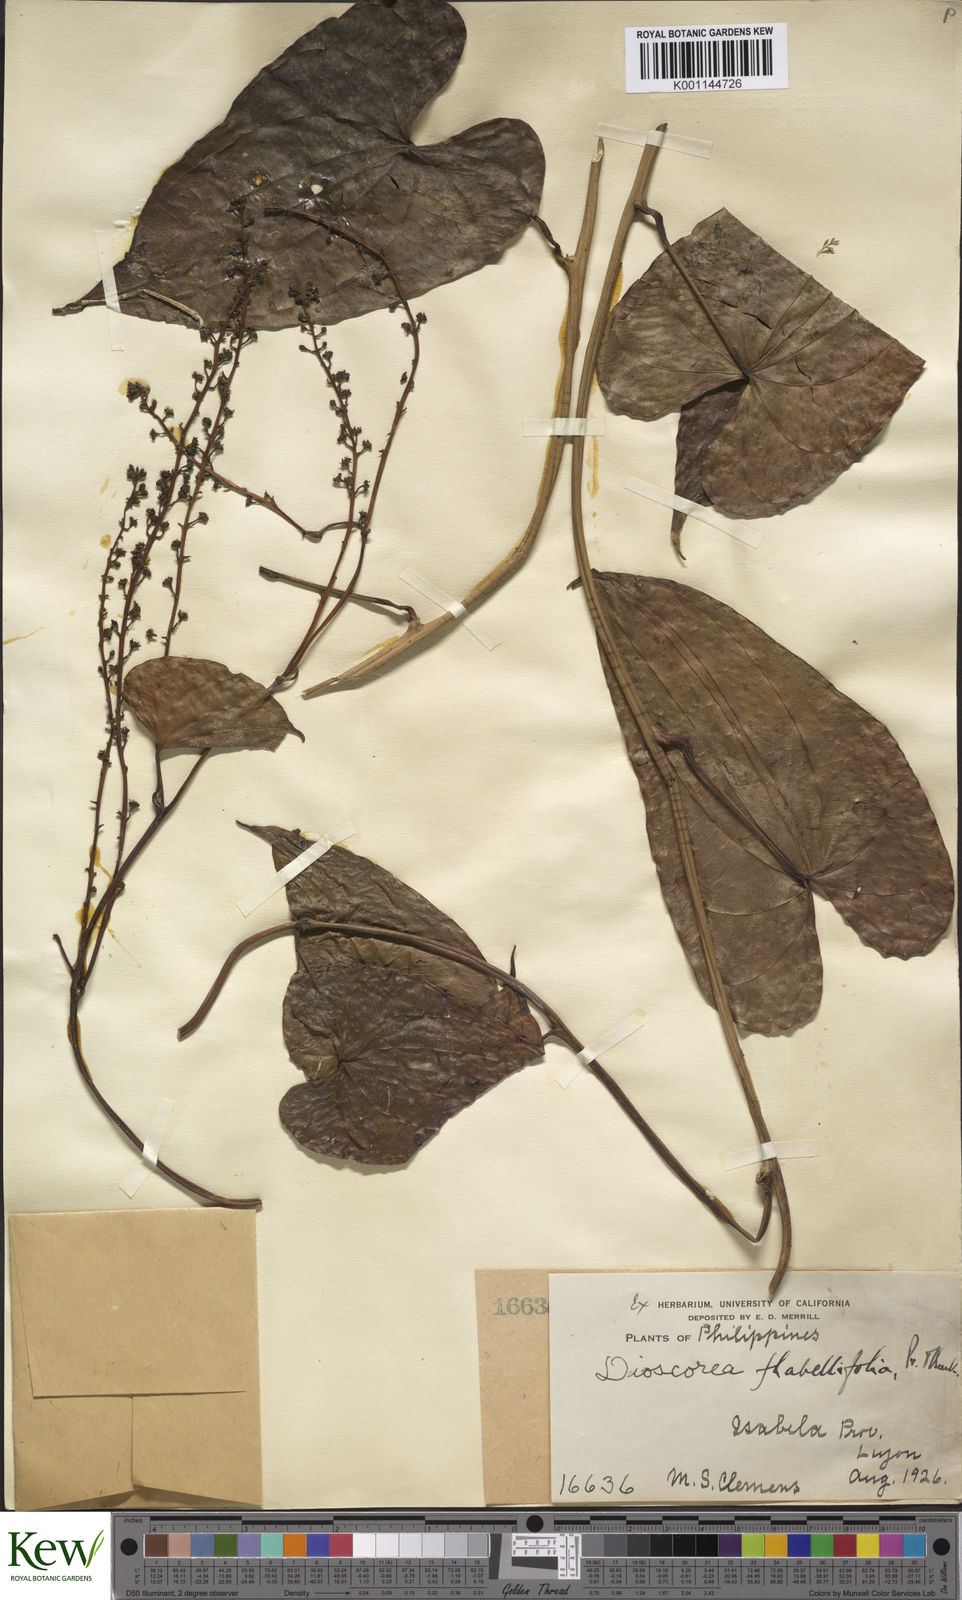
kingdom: Plantae
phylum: Tracheophyta
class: Liliopsida
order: Dioscoreales
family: Dioscoreaceae
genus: Dioscorea
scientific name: Dioscorea flabellifolia
